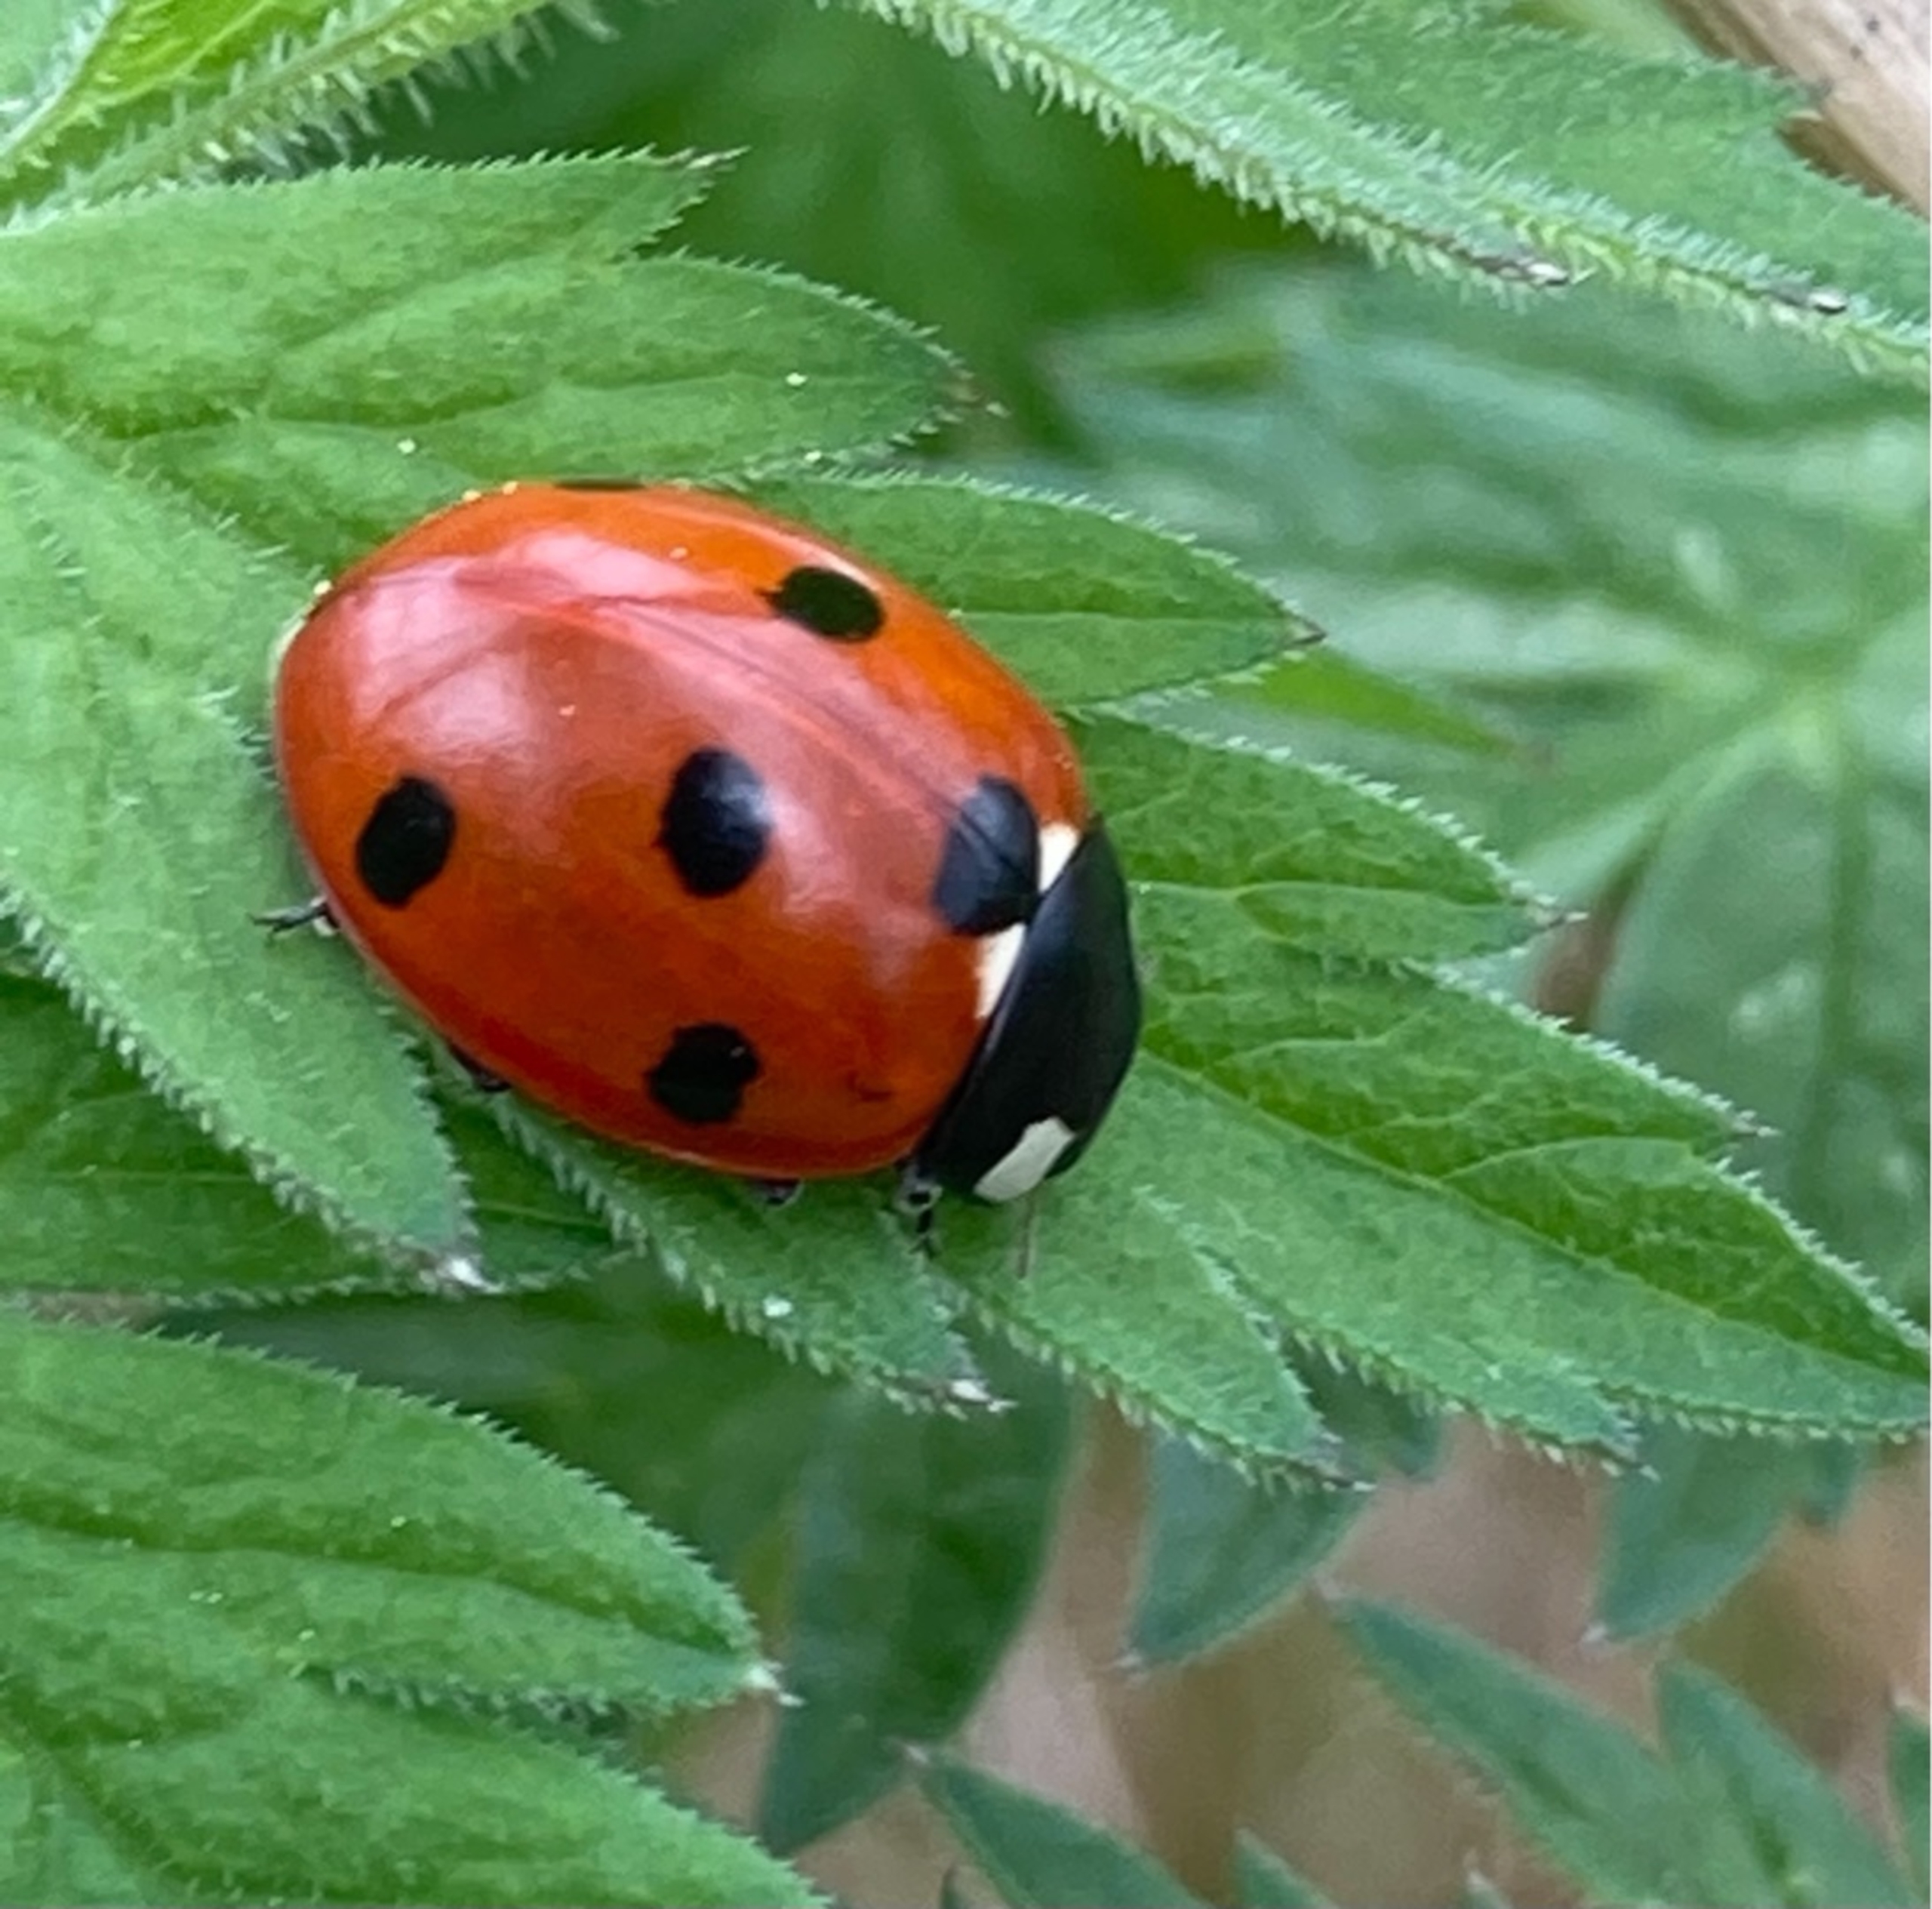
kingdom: Animalia
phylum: Arthropoda
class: Insecta
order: Coleoptera
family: Coccinellidae
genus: Coccinella
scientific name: Coccinella septempunctata
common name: Syvplettet mariehøne
